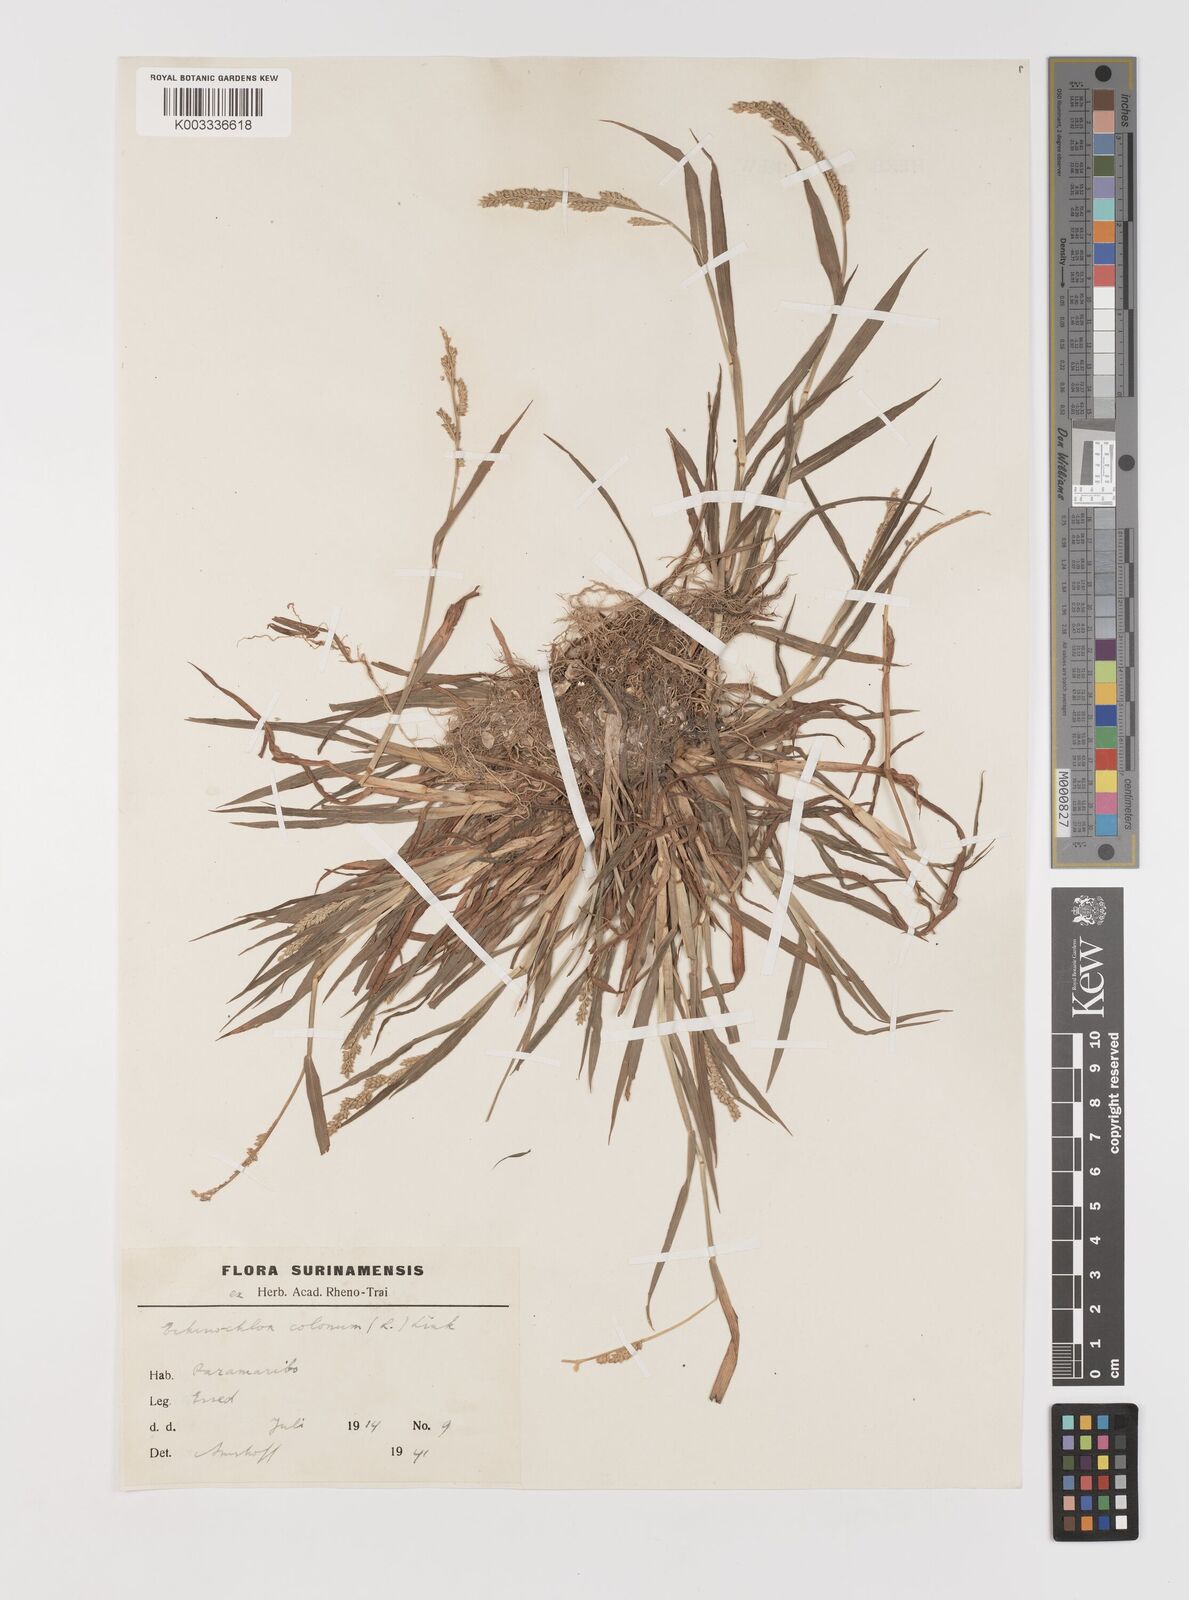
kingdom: Plantae
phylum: Tracheophyta
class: Liliopsida
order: Poales
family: Poaceae
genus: Echinochloa
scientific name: Echinochloa colonum
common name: Jungle rice
